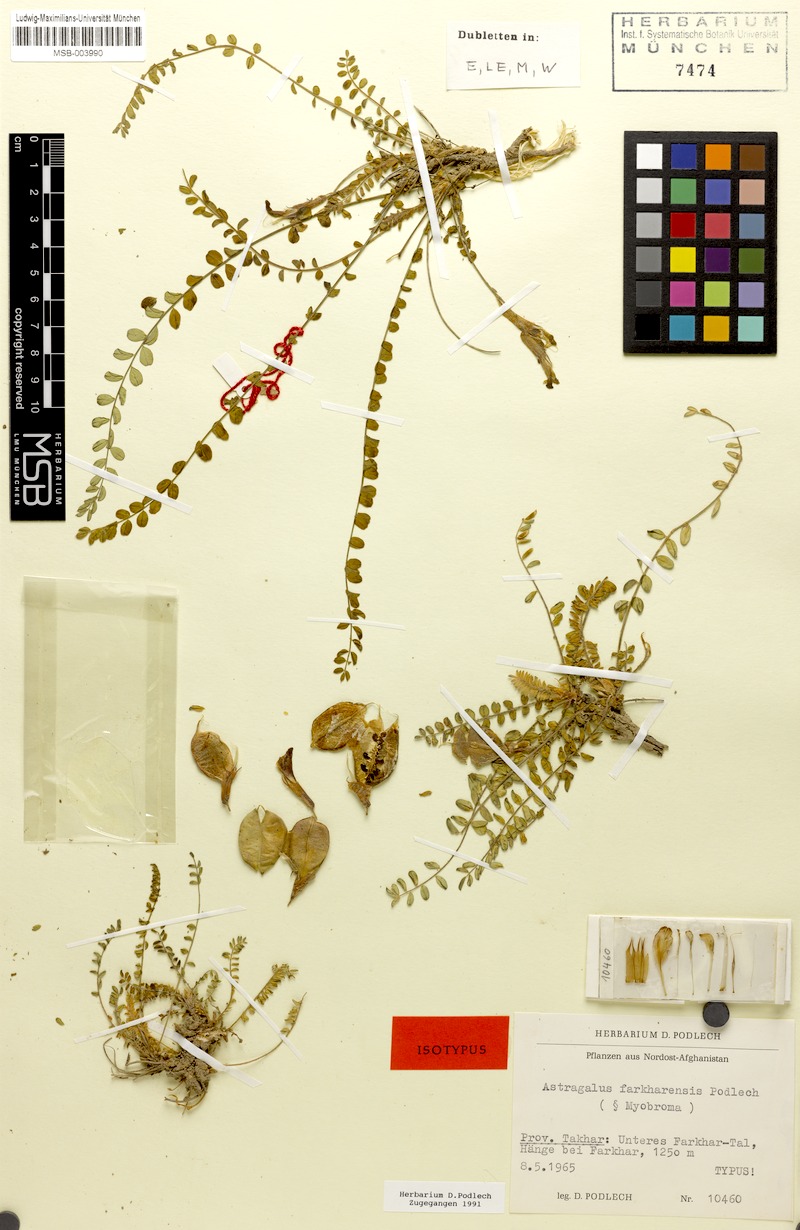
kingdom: Plantae
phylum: Tracheophyta
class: Magnoliopsida
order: Fabales
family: Fabaceae
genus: Astragalus
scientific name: Astragalus farkharensis
